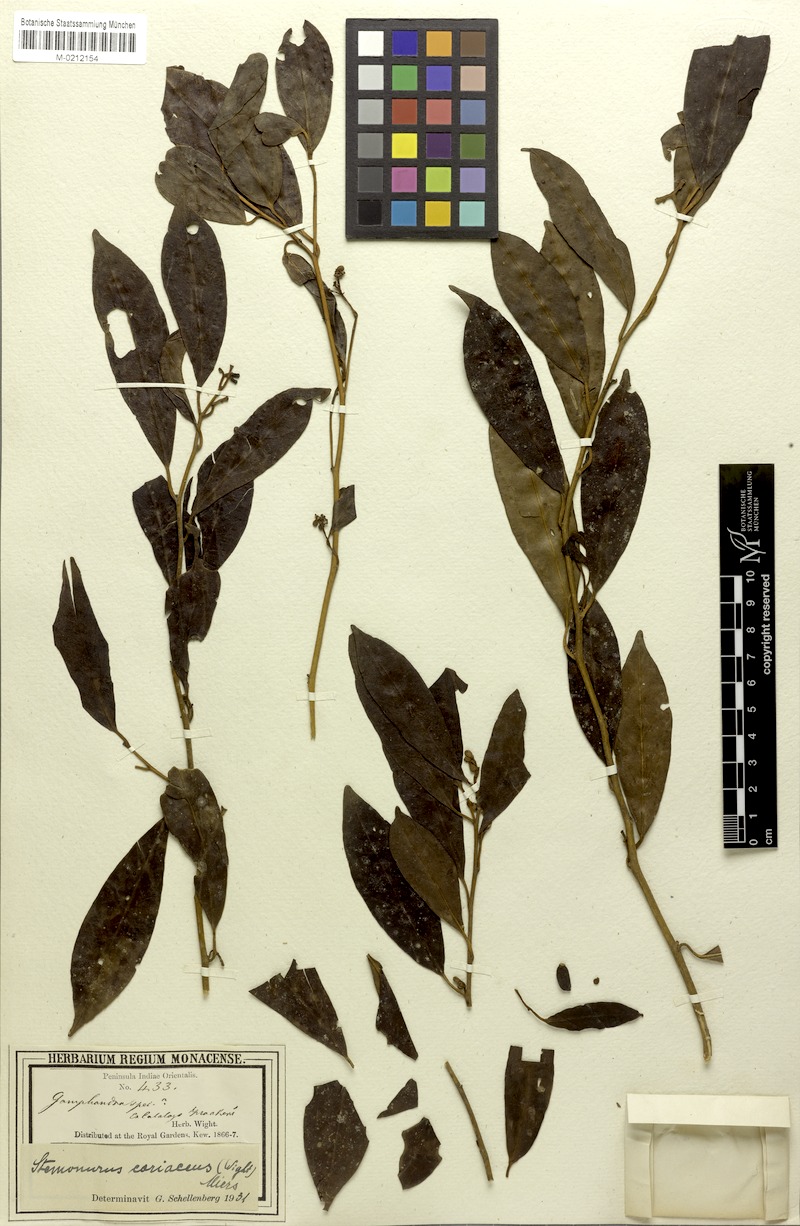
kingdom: Plantae
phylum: Tracheophyta
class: Magnoliopsida
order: Cardiopteridales
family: Stemonuraceae
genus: Gomphandra
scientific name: Gomphandra coriacea
